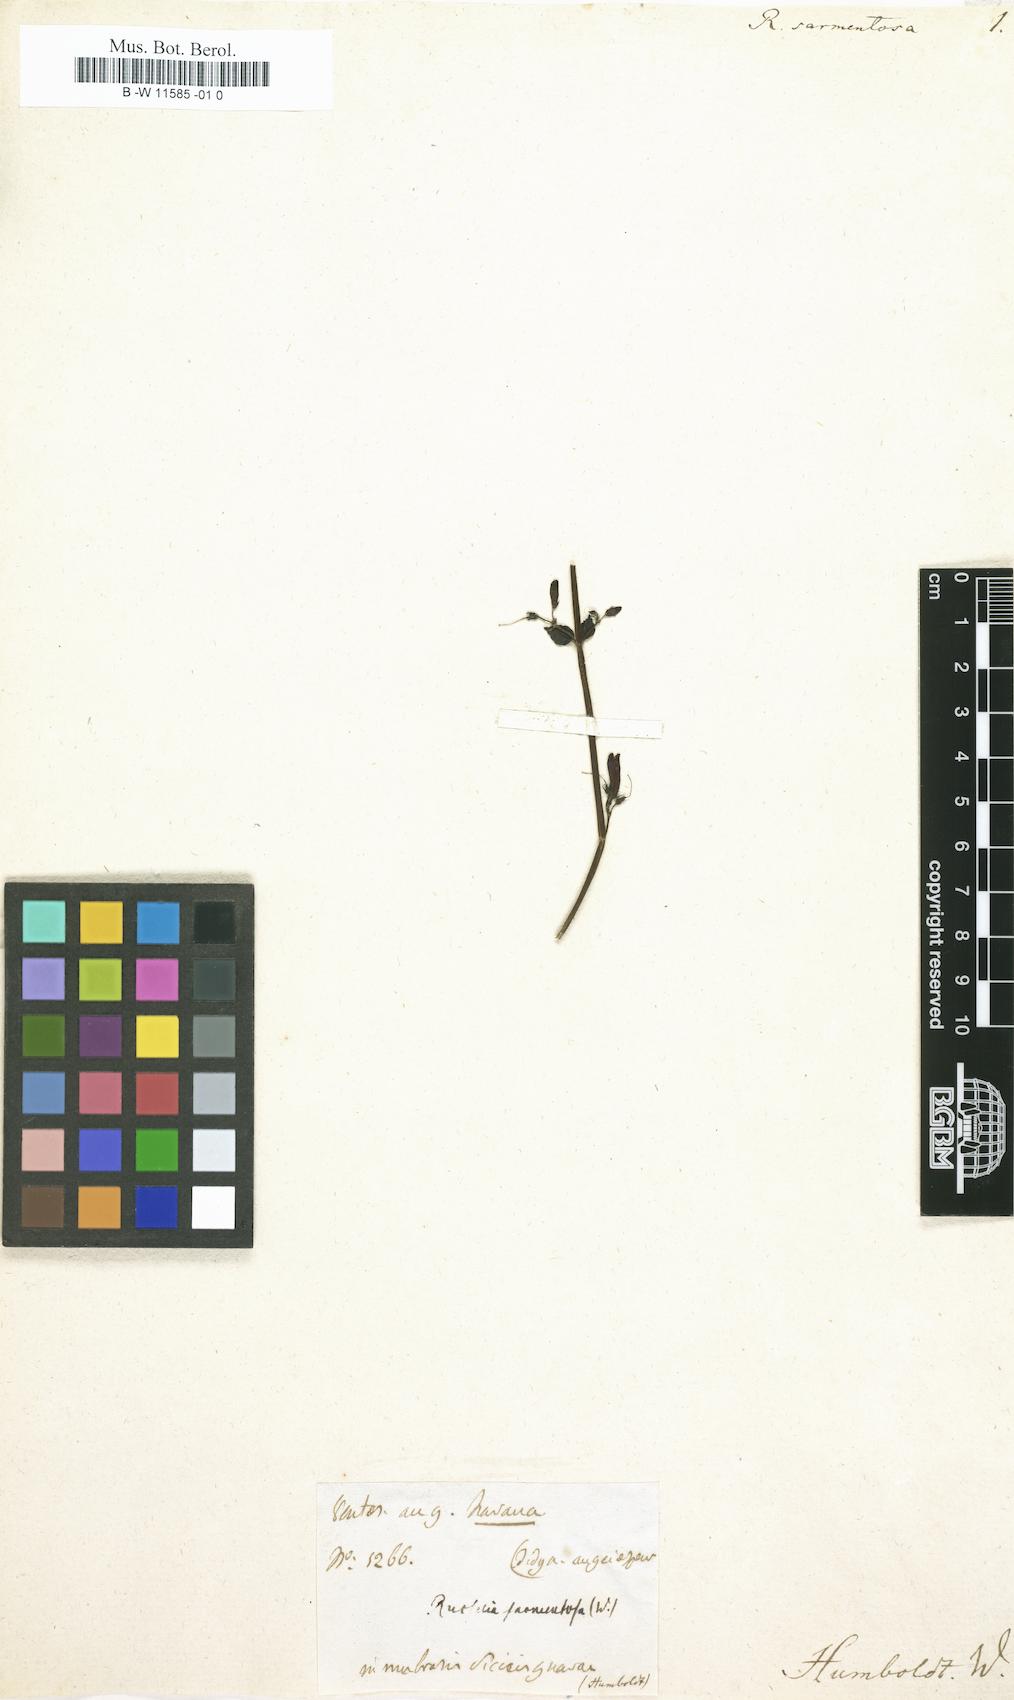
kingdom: Plantae
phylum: Tracheophyta
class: Magnoliopsida
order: Lamiales
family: Plantaginaceae
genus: Russelia
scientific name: Russelia sarmentosa
